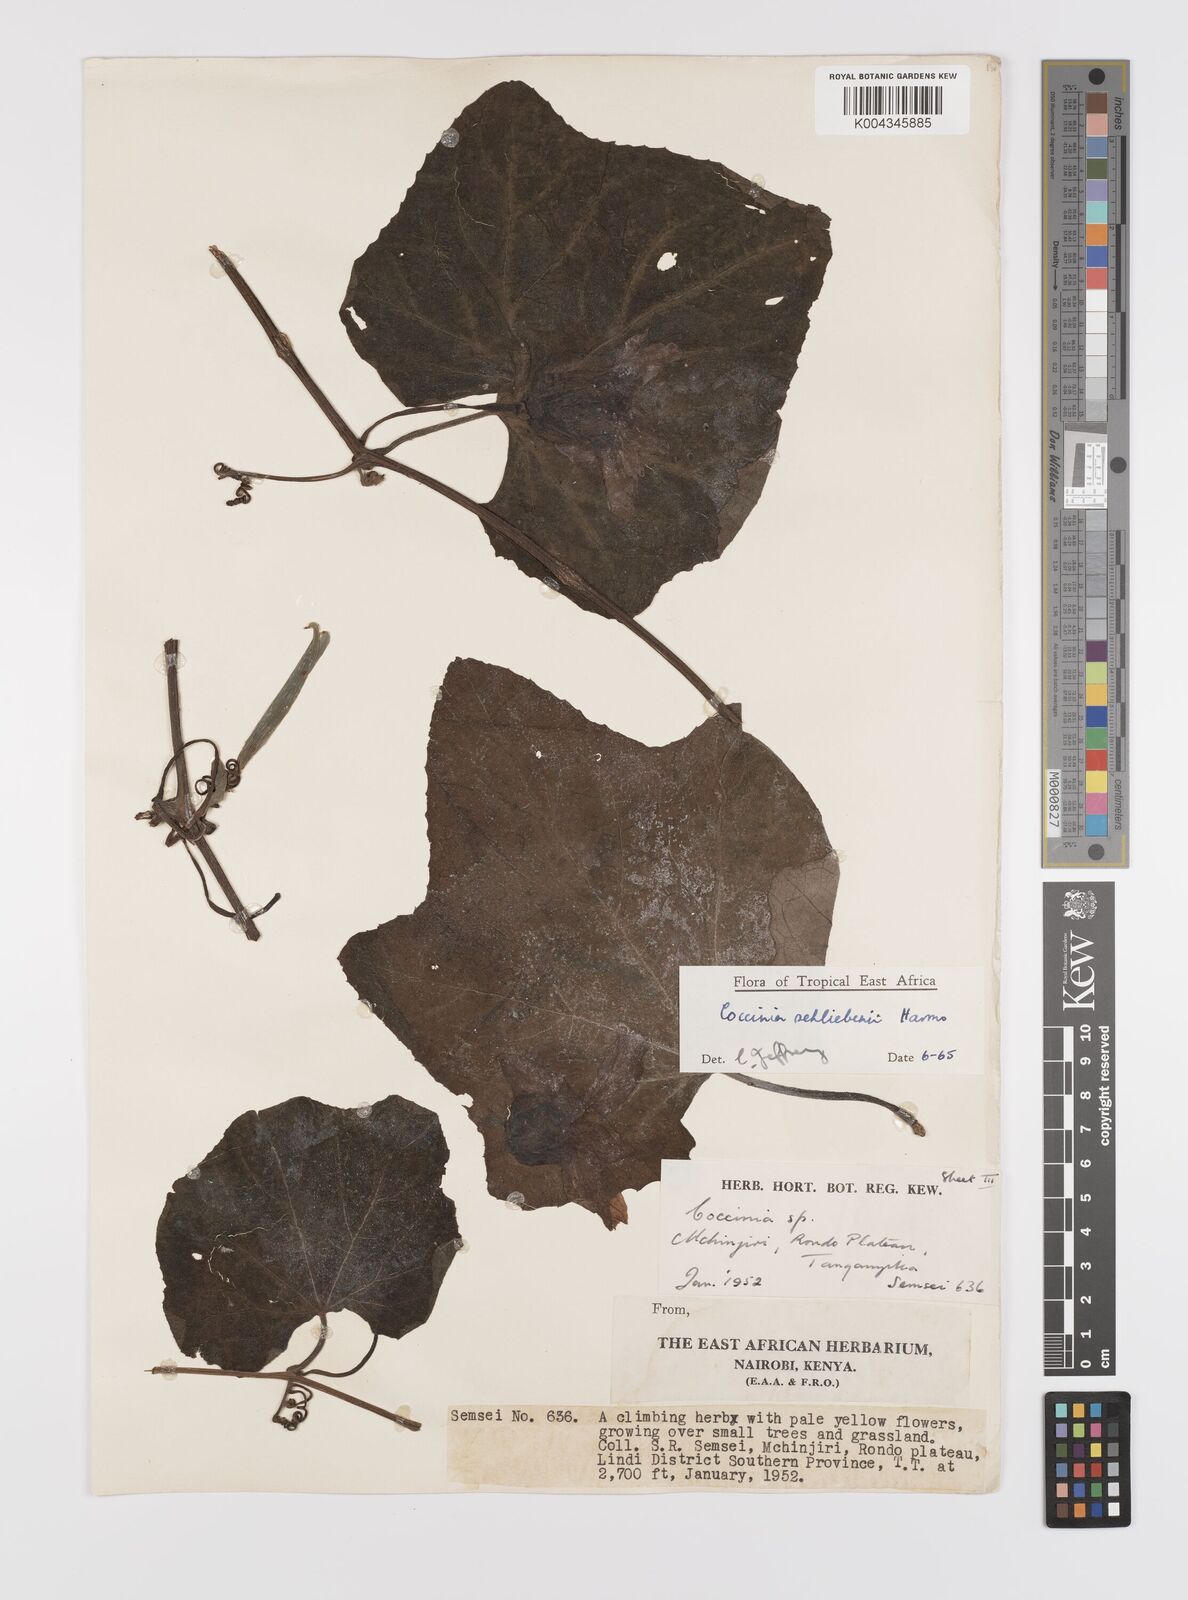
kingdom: Plantae
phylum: Tracheophyta
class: Magnoliopsida
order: Cucurbitales
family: Cucurbitaceae
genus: Coccinia
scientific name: Coccinia schliebenii
